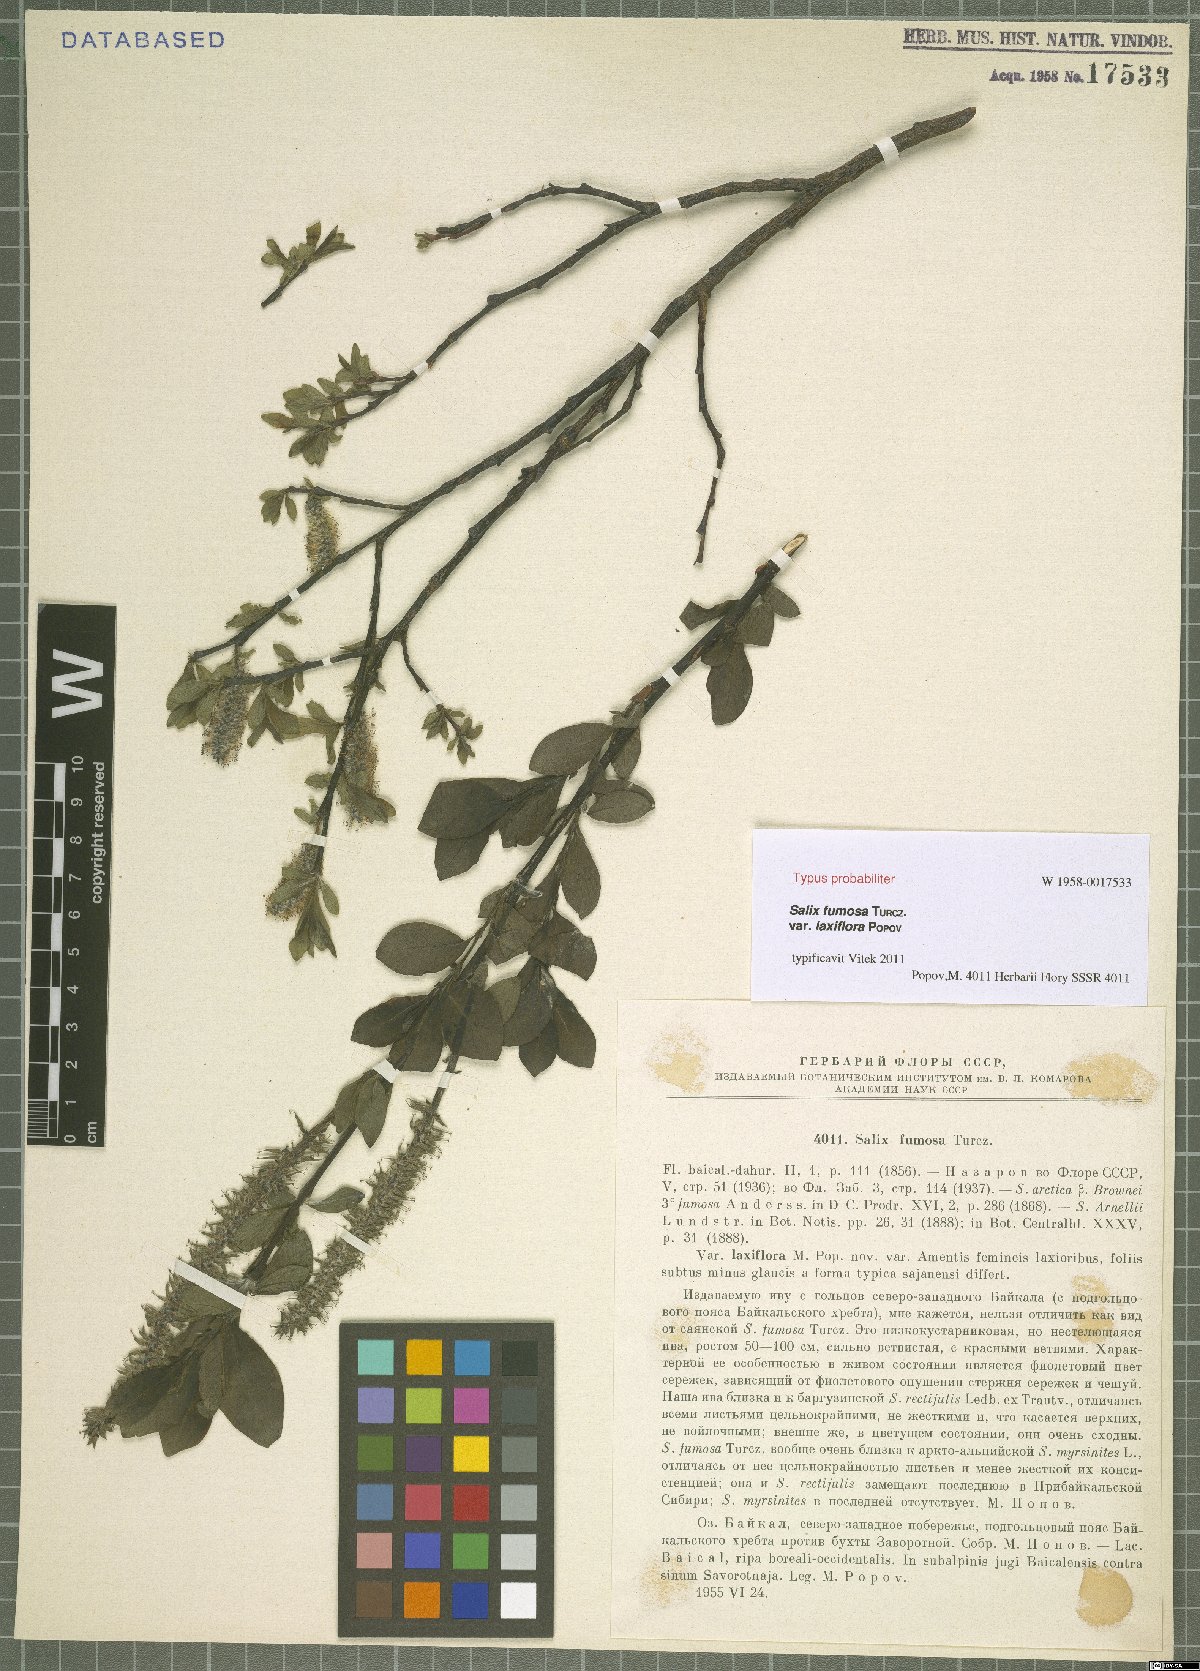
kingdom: Plantae
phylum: Tracheophyta
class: Magnoliopsida
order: Malpighiales
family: Salicaceae
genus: Salix
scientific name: Salix saxatilis
